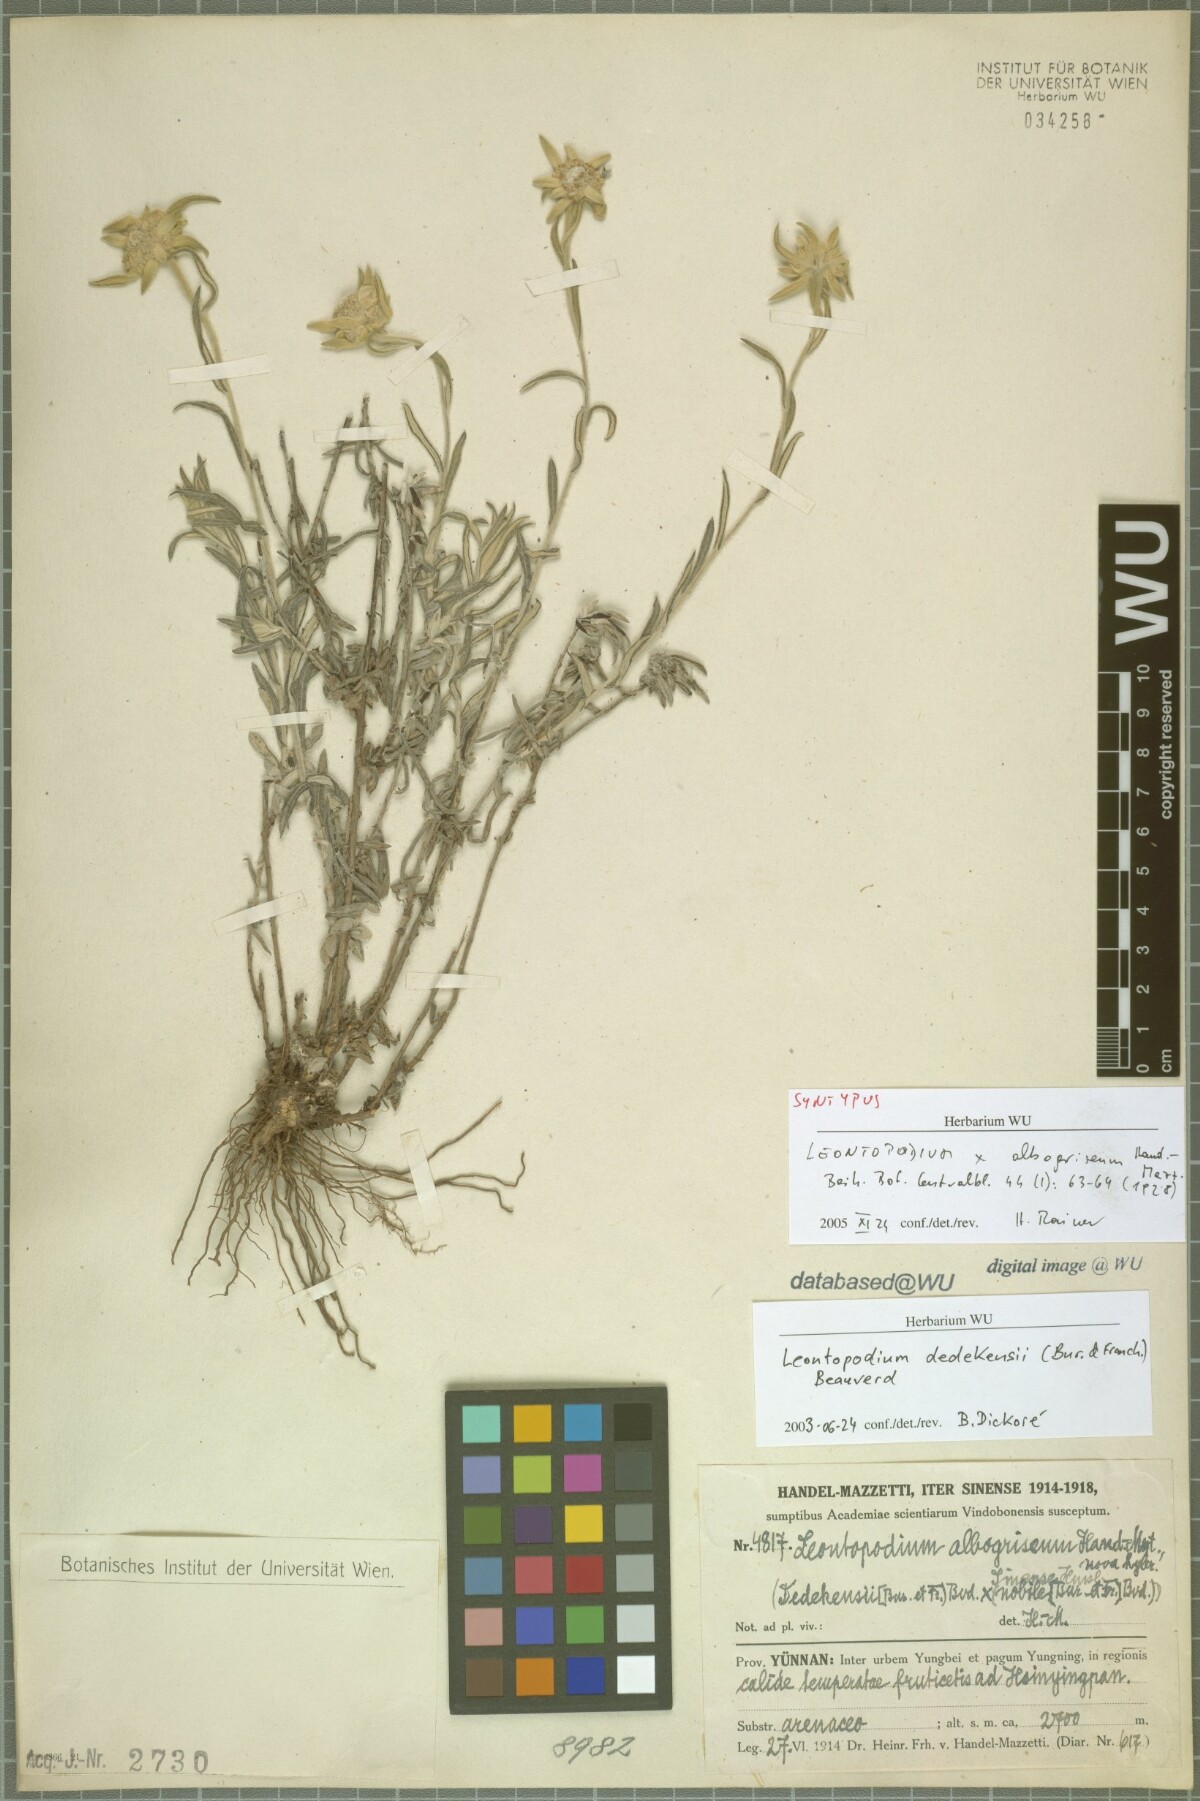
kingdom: Plantae
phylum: Tracheophyta
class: Magnoliopsida
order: Asterales
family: Asteraceae
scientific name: Asteraceae
